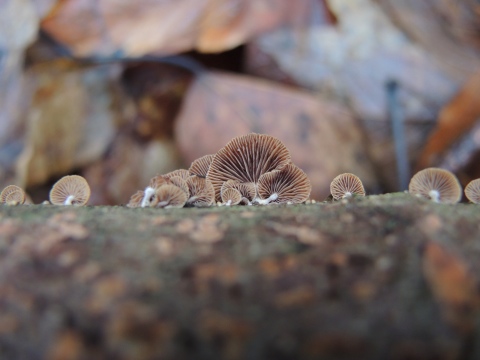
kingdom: Fungi
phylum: Basidiomycota
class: Agaricomycetes
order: Agaricales
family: Strophariaceae
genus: Deconica
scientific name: Deconica horizontalis
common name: ved-stråhat
